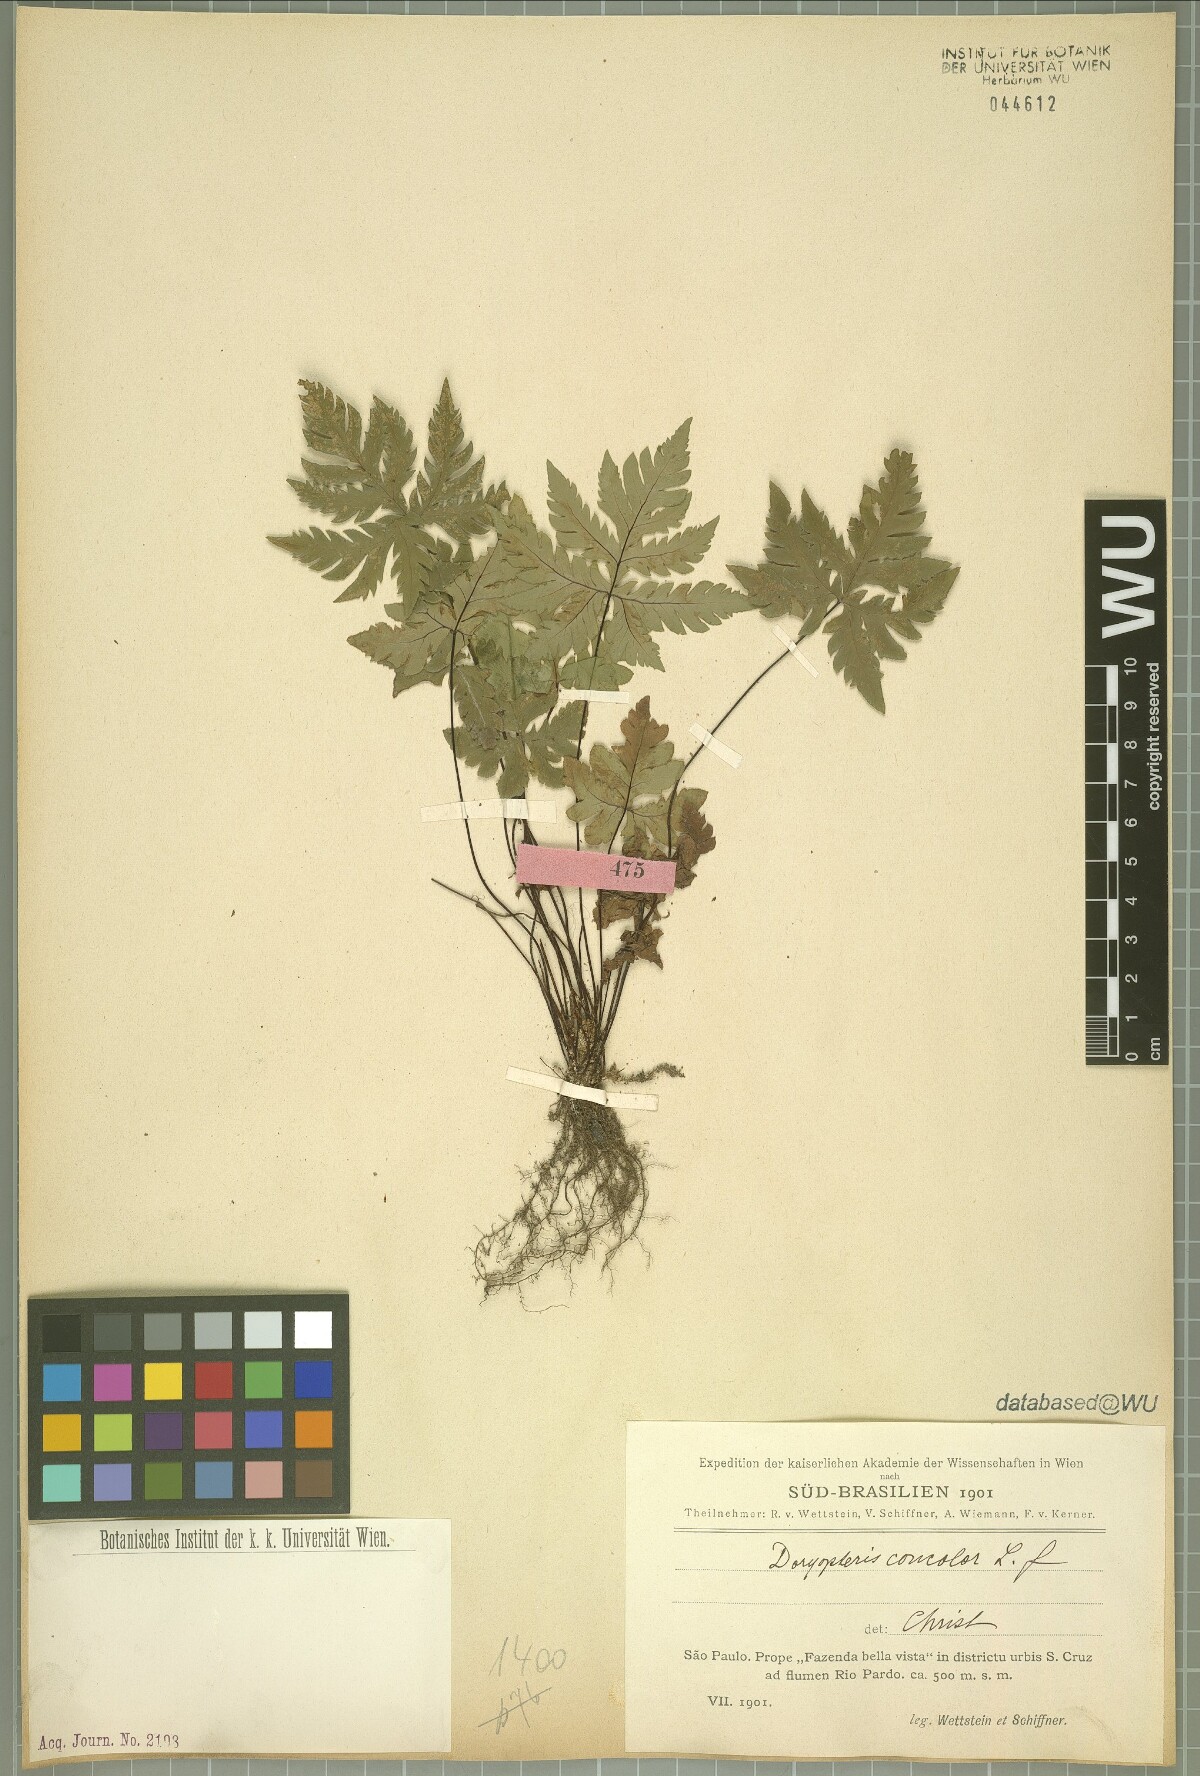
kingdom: Plantae
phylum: Tracheophyta
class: Polypodiopsida
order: Polypodiales
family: Pteridaceae
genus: Doryopteris
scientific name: Doryopteris concolor
